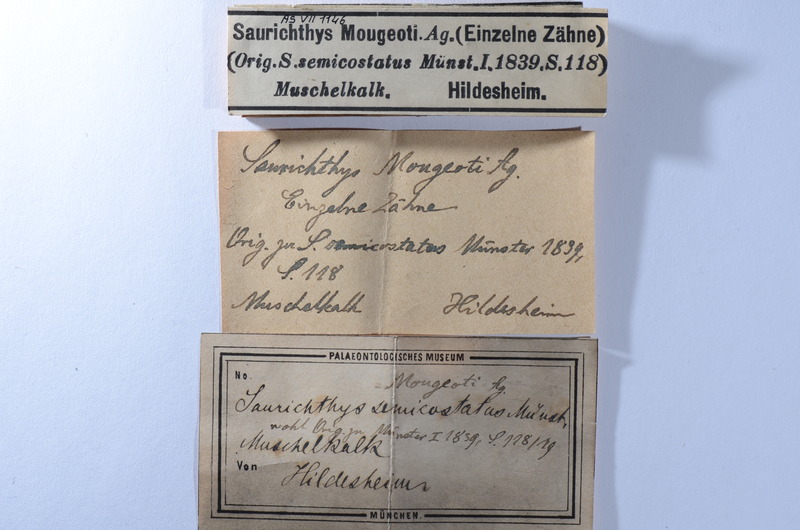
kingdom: Animalia
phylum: Chordata
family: Saurichthyidae
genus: Saurichthys
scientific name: Saurichthys semicostatus
